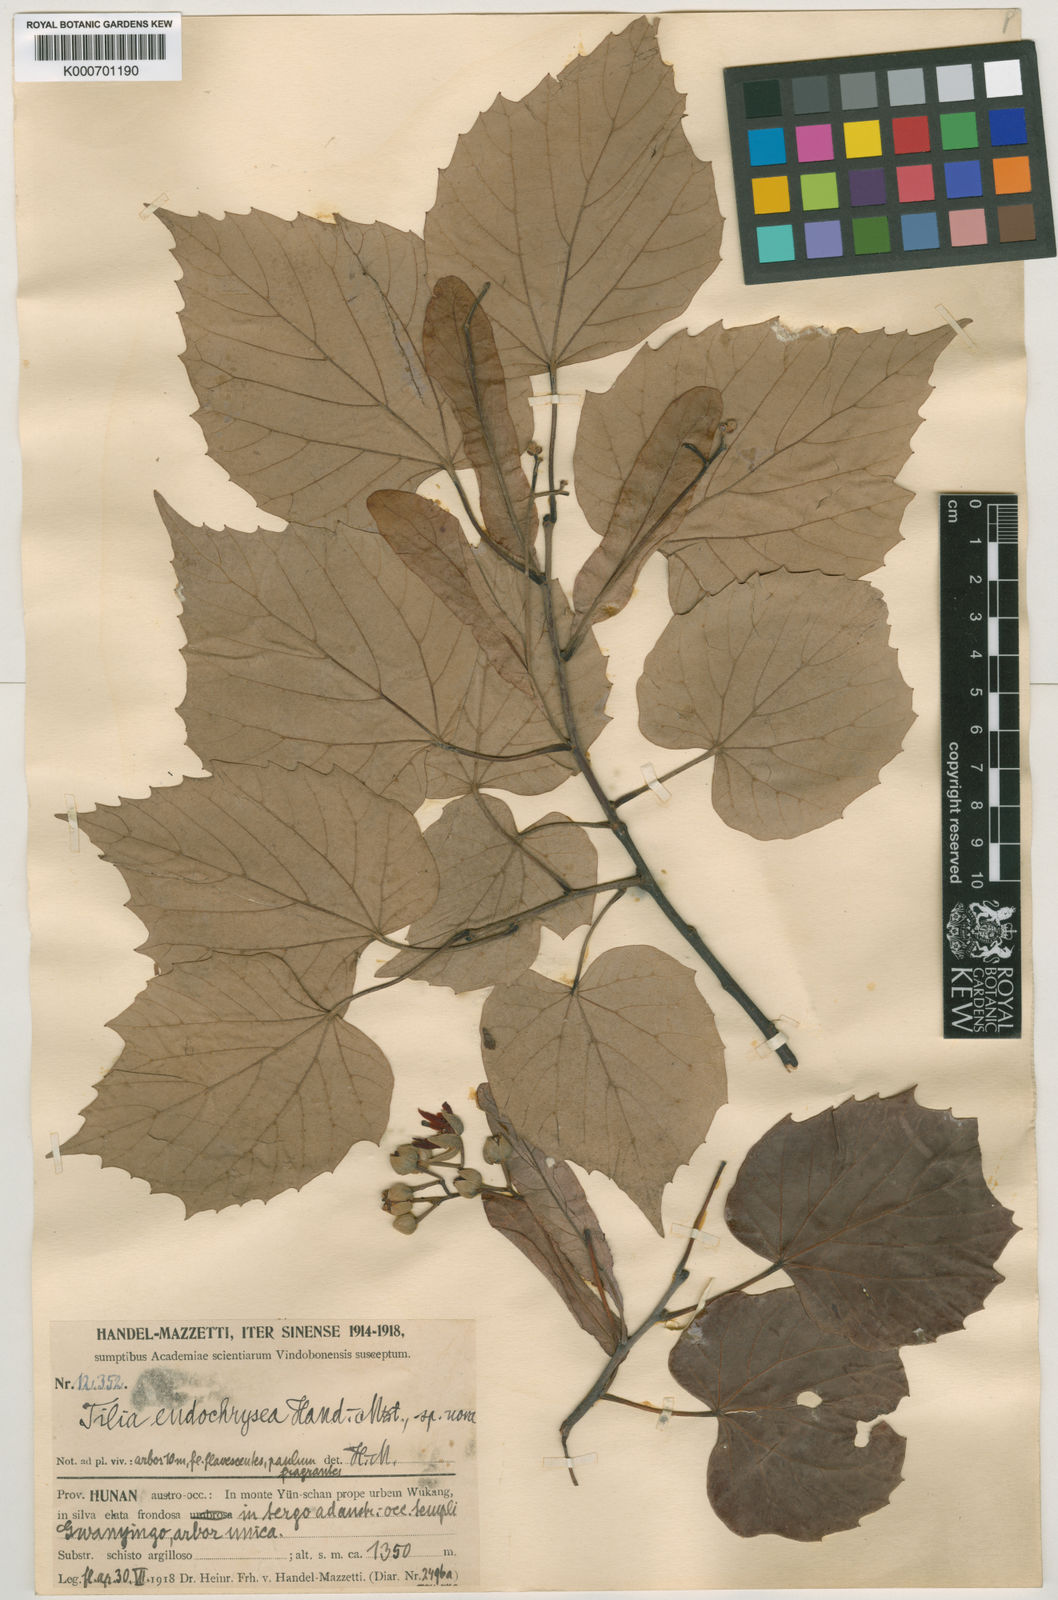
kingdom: Plantae
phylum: Tracheophyta
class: Magnoliopsida
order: Malvales
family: Malvaceae
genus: Tilia
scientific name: Tilia endochrysea
